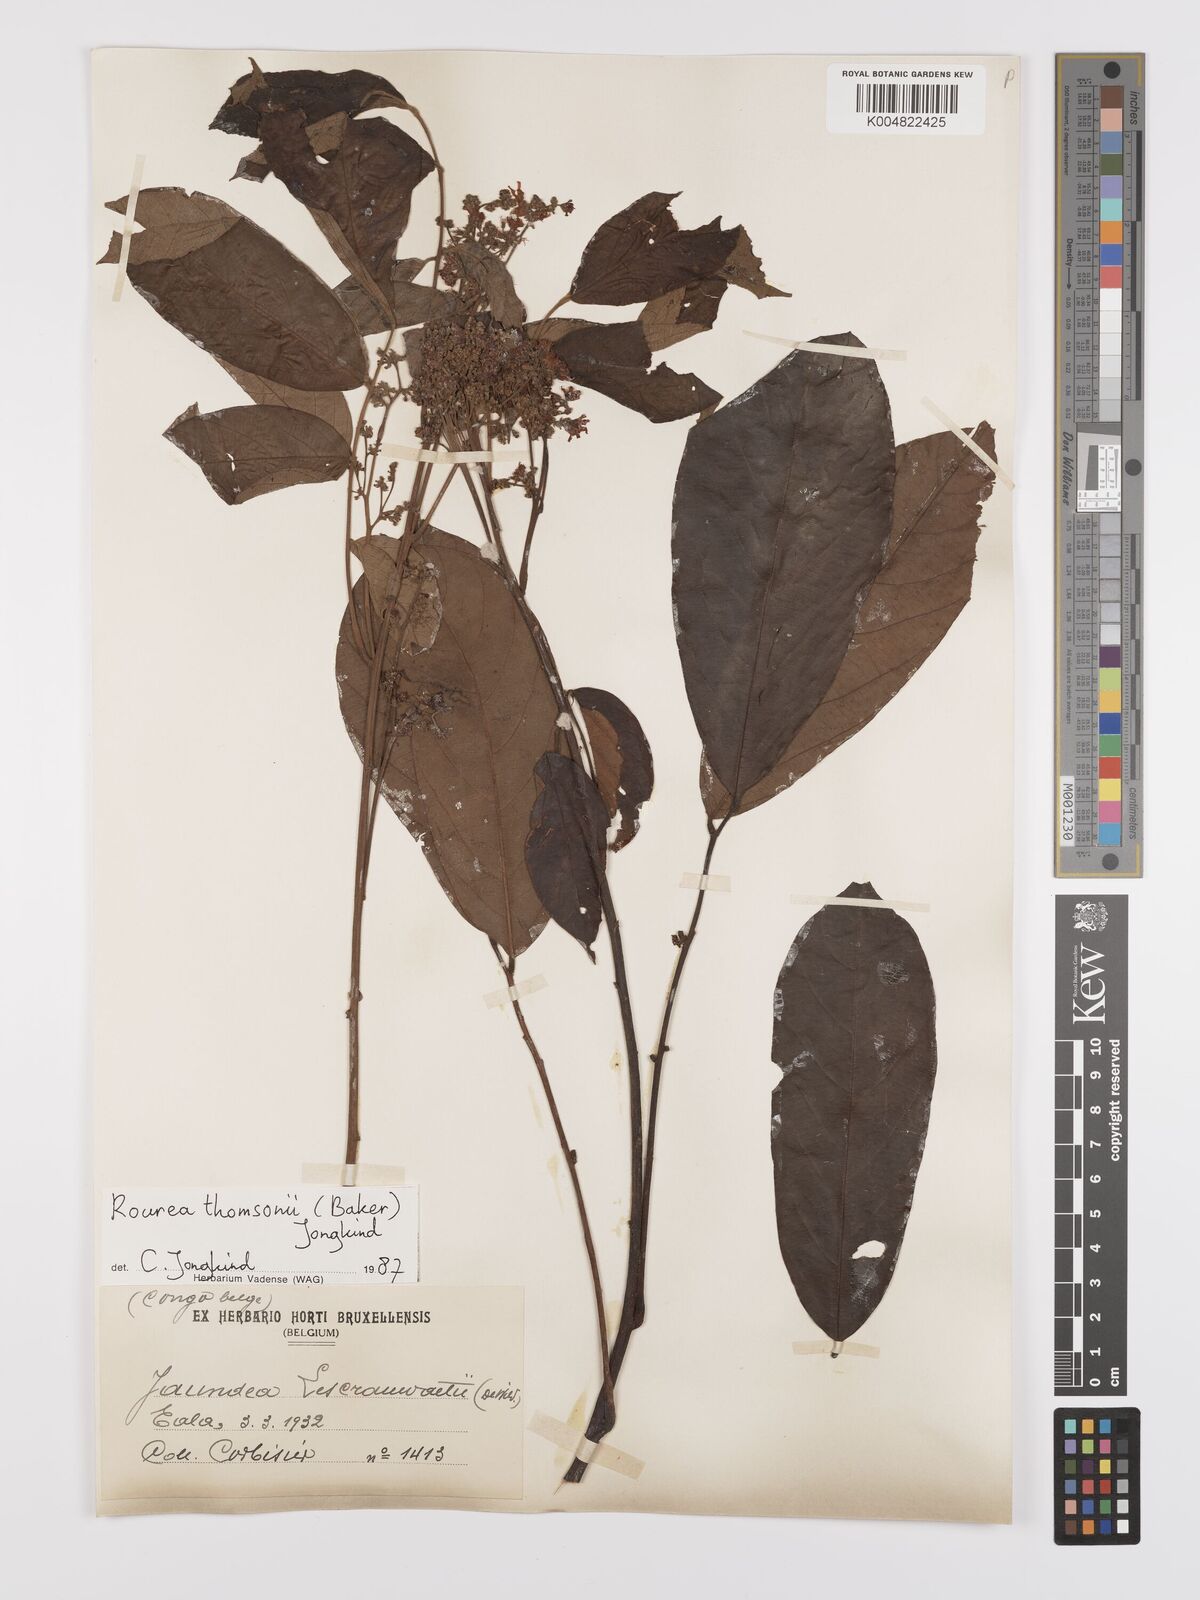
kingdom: Plantae
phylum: Tracheophyta
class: Magnoliopsida
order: Oxalidales
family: Connaraceae
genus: Rourea
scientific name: Rourea pubescens
